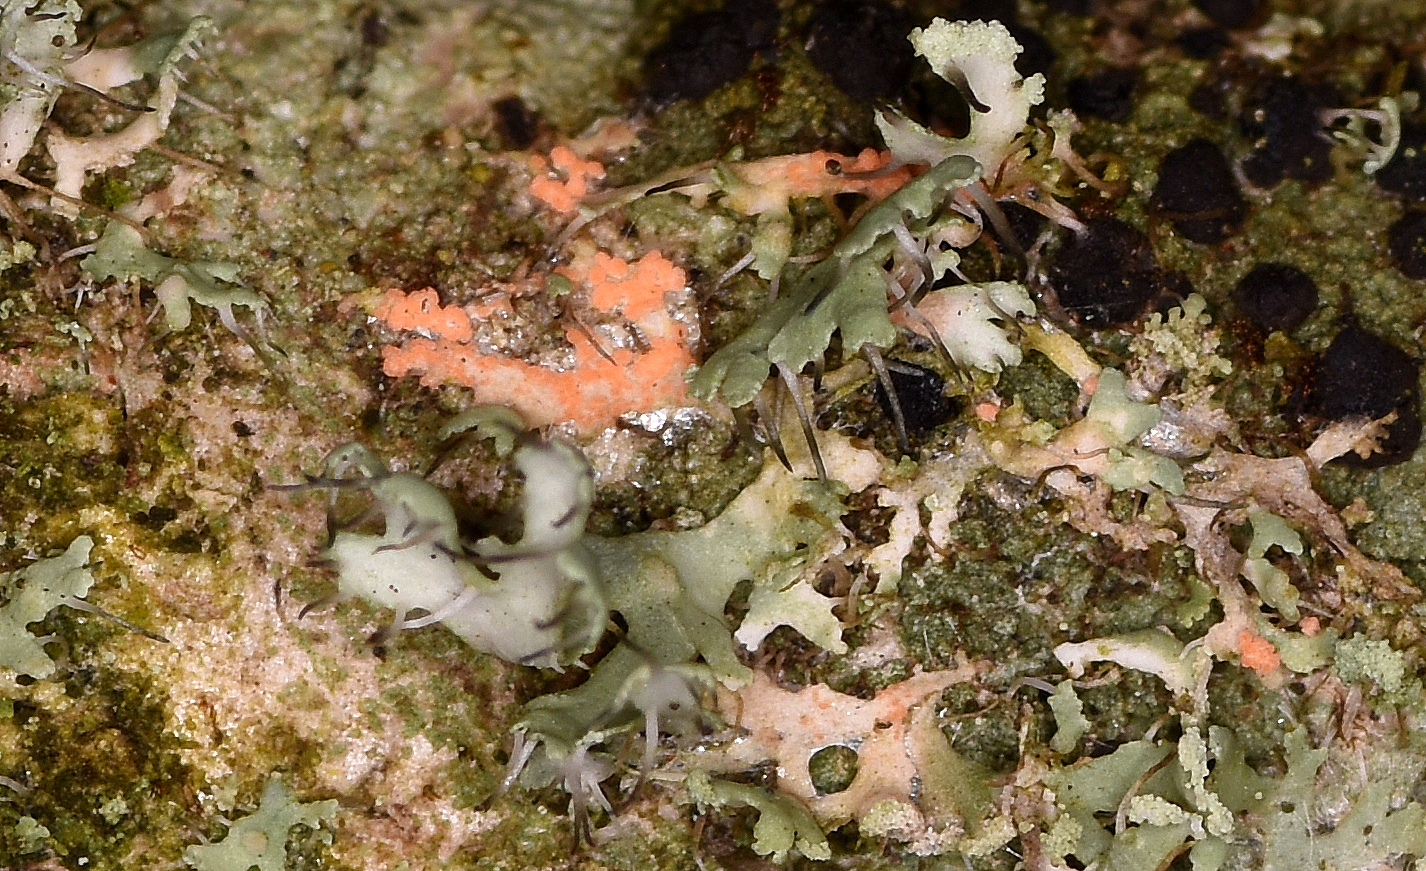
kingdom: Fungi
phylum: Basidiomycota
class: Agaricomycetes
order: Corticiales
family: Corticiaceae
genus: Erythricium
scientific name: Erythricium aurantiacum
